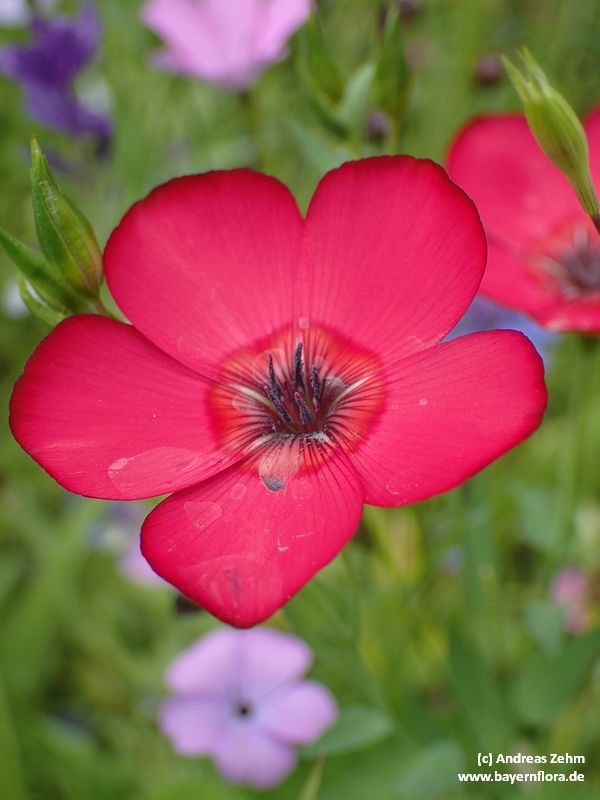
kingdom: Plantae
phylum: Tracheophyta
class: Magnoliopsida
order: Malpighiales
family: Linaceae
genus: Linum
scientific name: Linum grandiflorum
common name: Crimson flax
